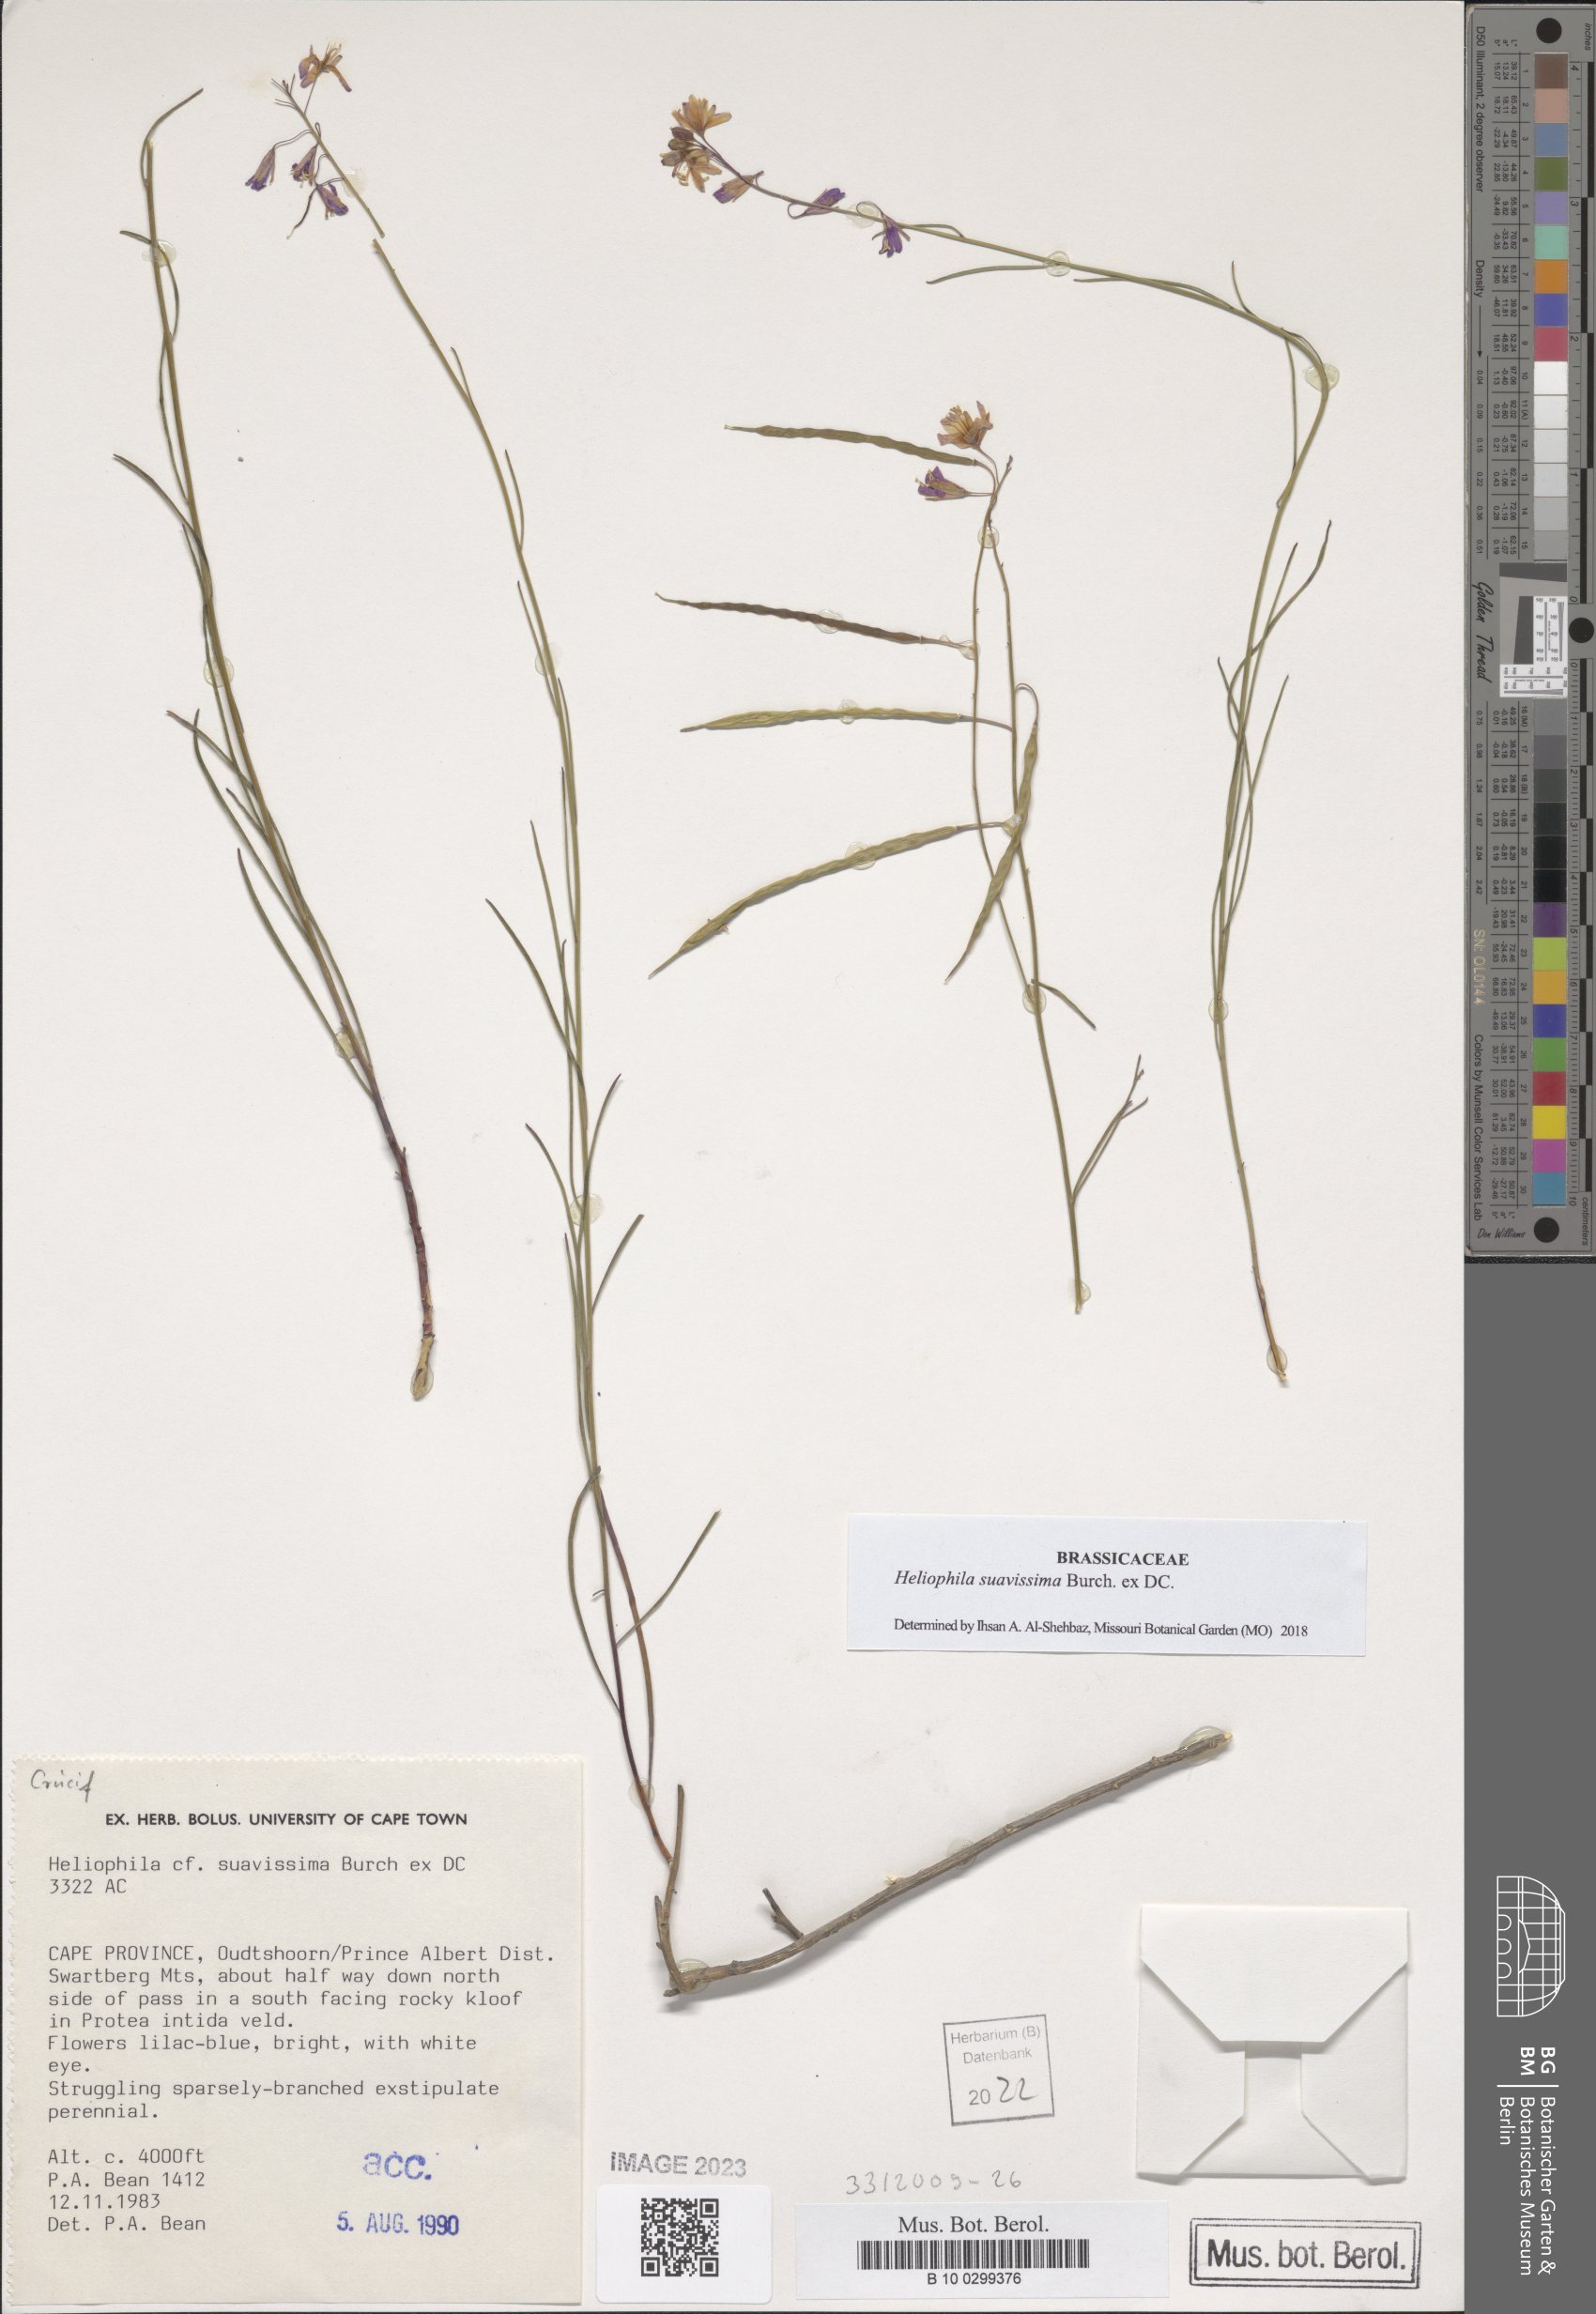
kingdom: Plantae
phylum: Tracheophyta
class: Magnoliopsida
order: Brassicales
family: Brassicaceae
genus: Heliophila
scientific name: Heliophila suavissima
